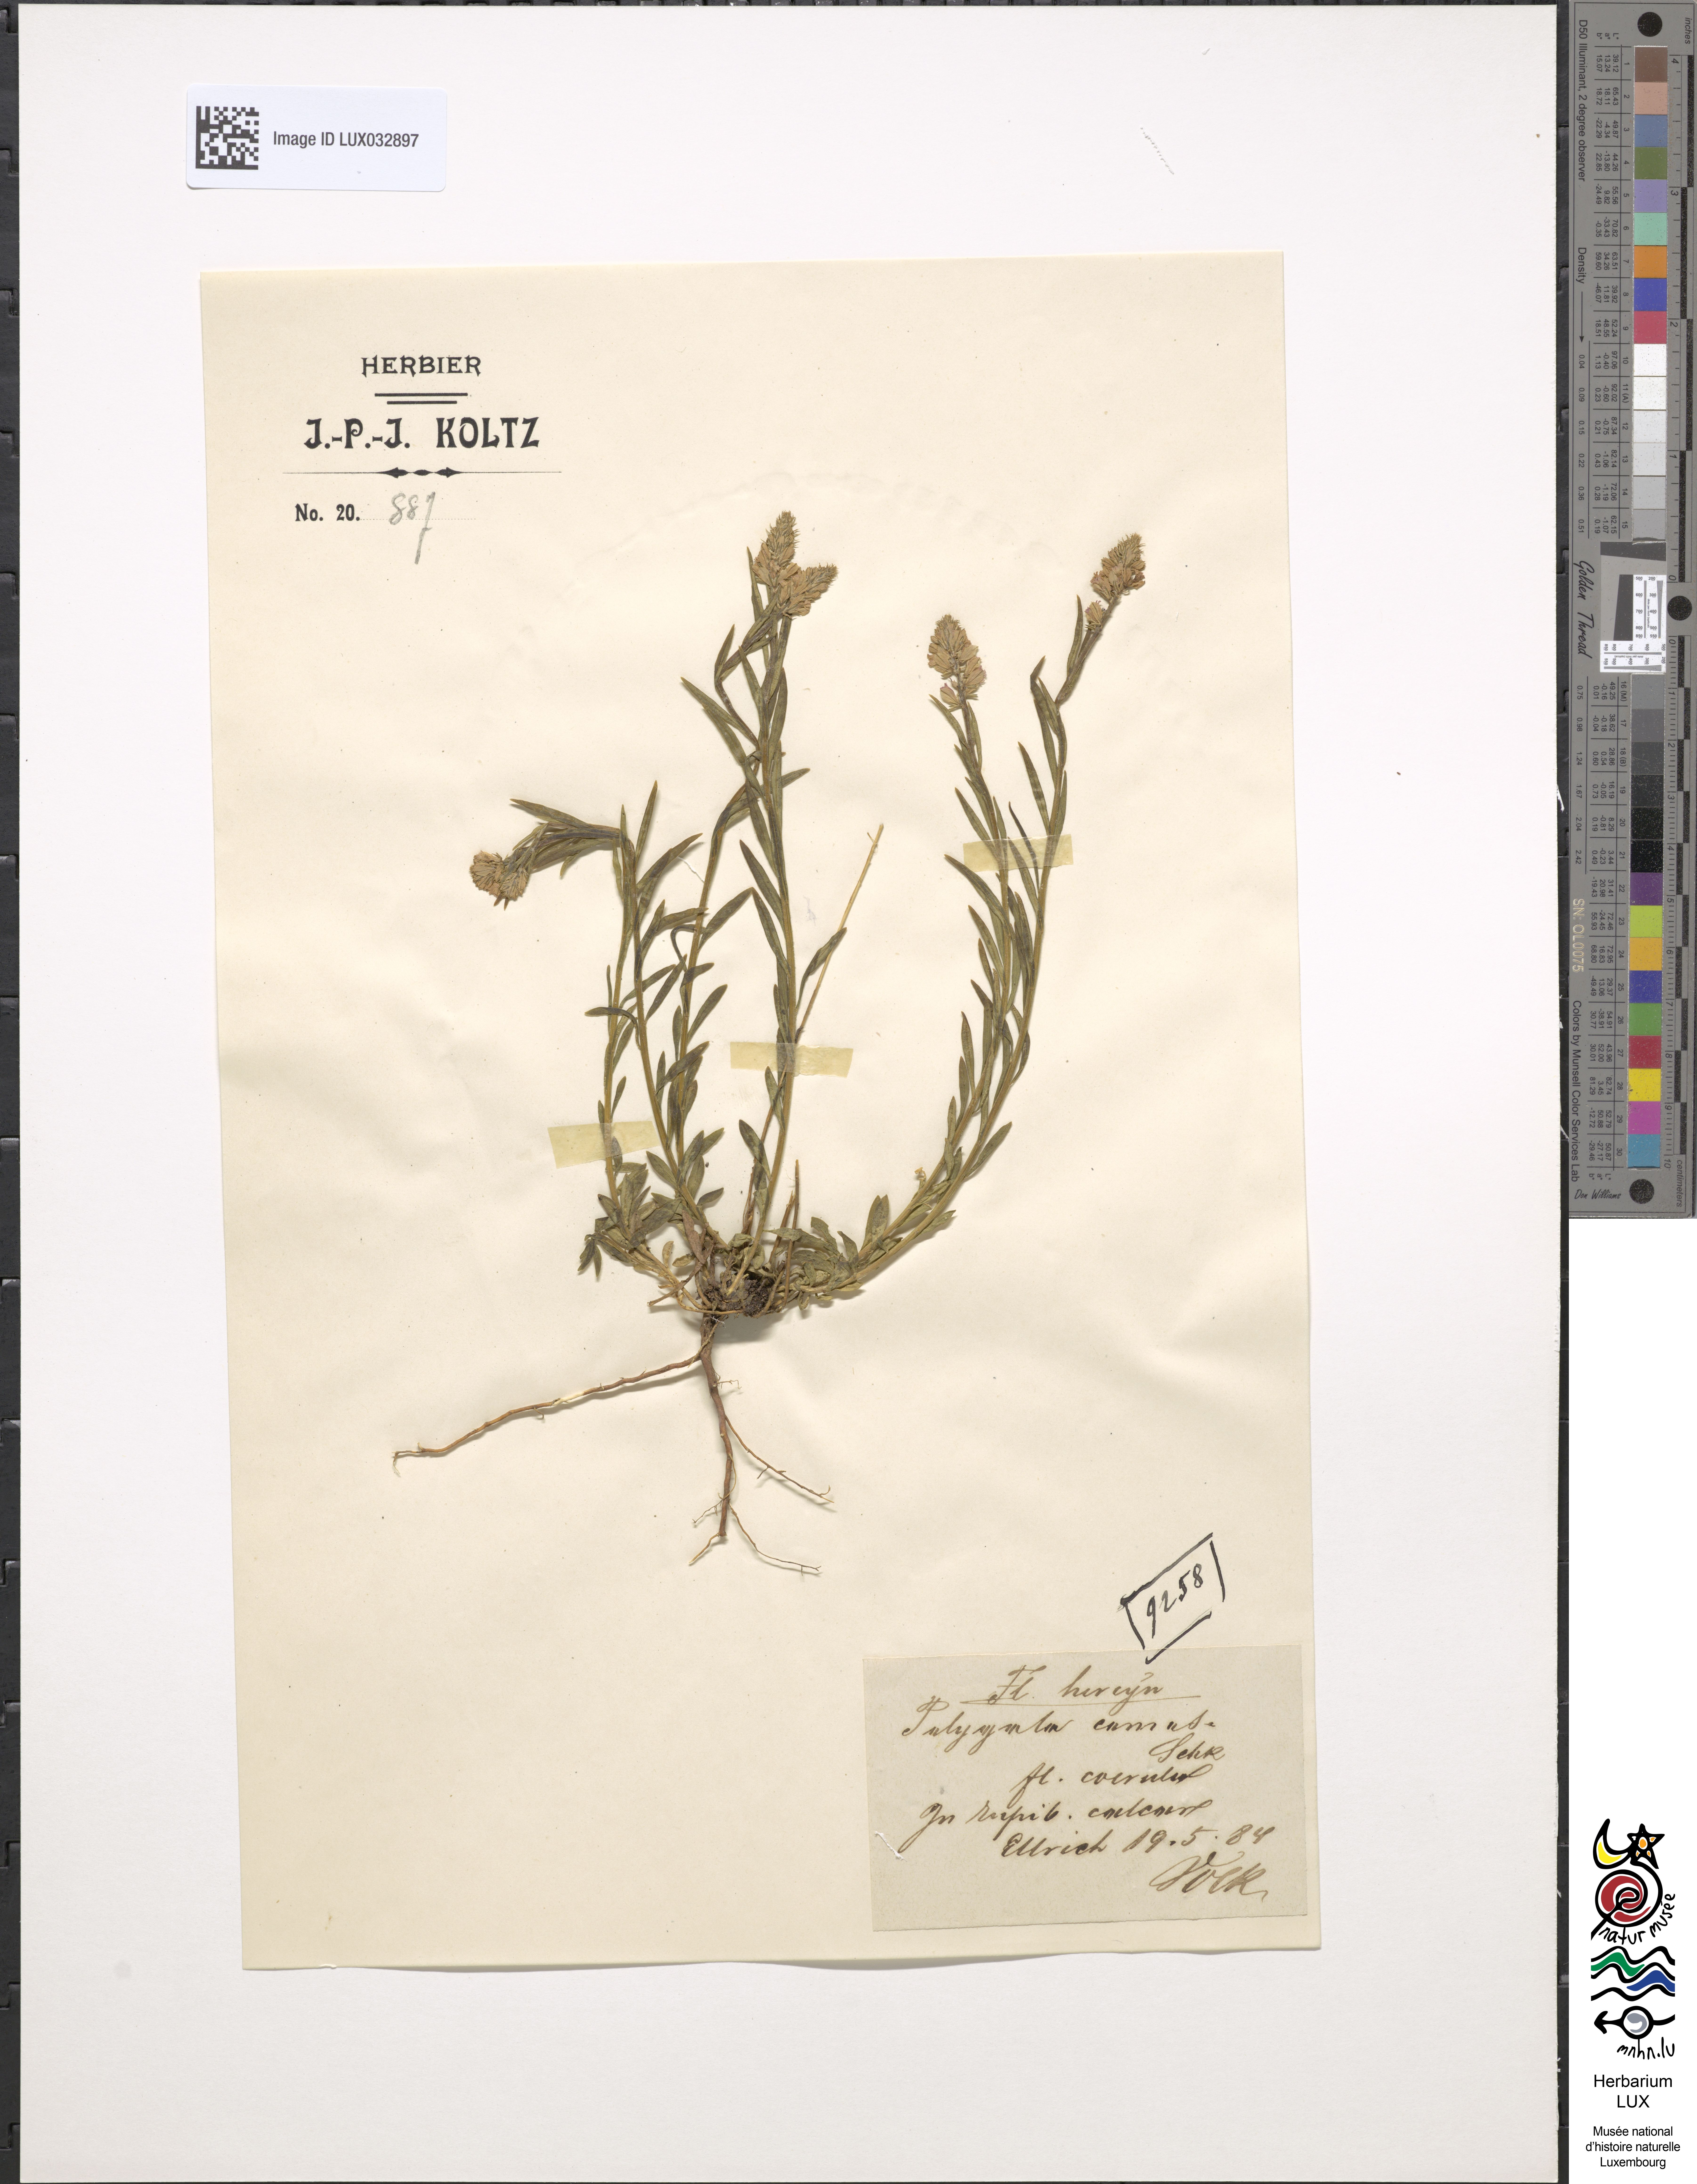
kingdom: Plantae
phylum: Tracheophyta
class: Magnoliopsida
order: Fabales
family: Polygalaceae
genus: Polygala
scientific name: Polygala comosa
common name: Tufted milkwort
